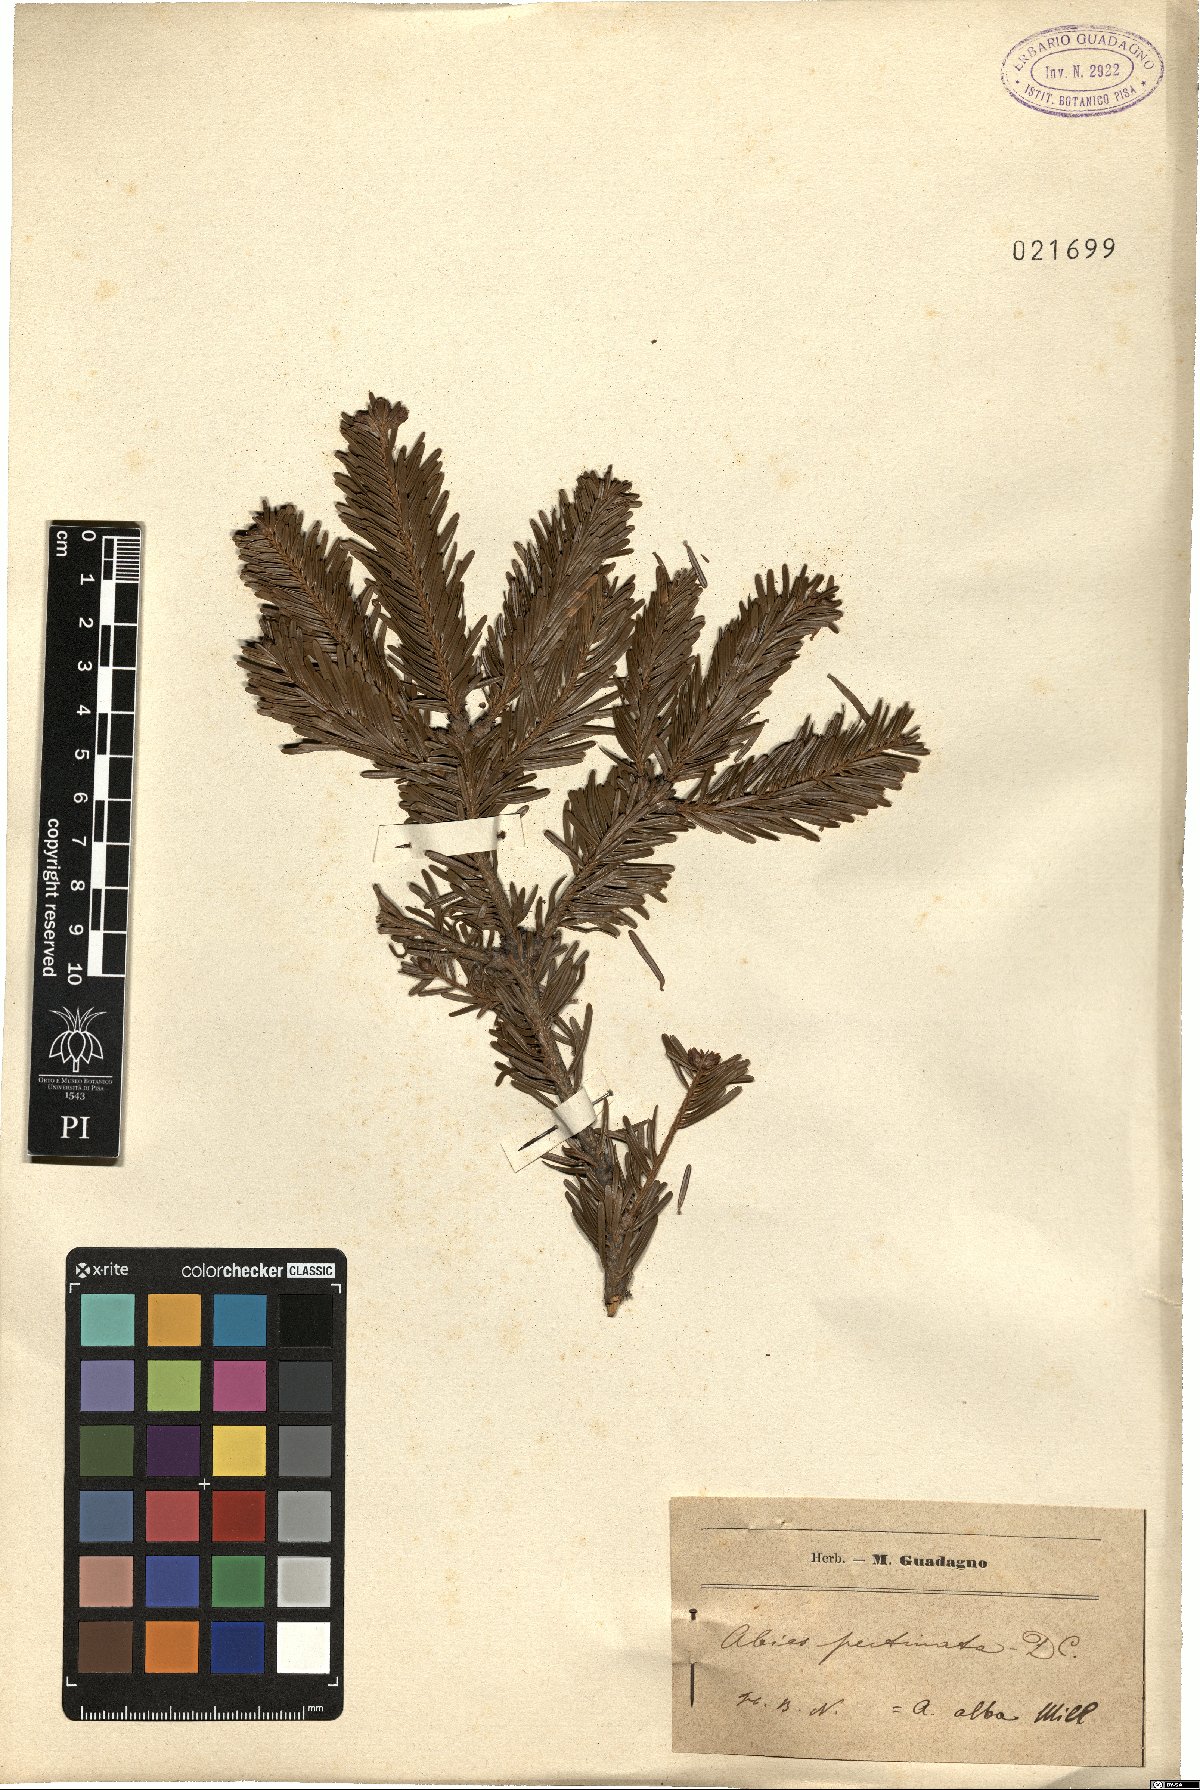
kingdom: Plantae
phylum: Tracheophyta
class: Pinopsida
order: Pinales
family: Pinaceae
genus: Abies
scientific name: Abies alba
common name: Silver fir
